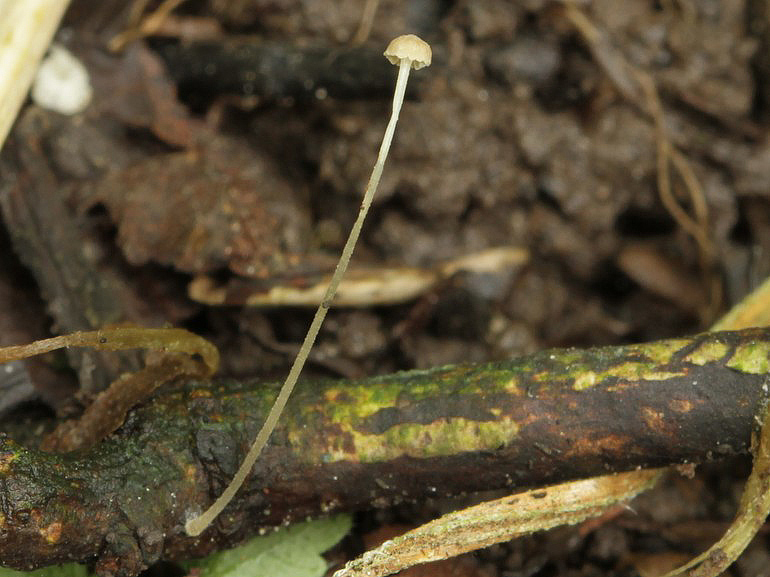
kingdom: Fungi
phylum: Basidiomycota
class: Agaricomycetes
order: Agaricales
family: Porotheleaceae
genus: Phloeomana
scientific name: Phloeomana speirea
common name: kvist-huesvamp
